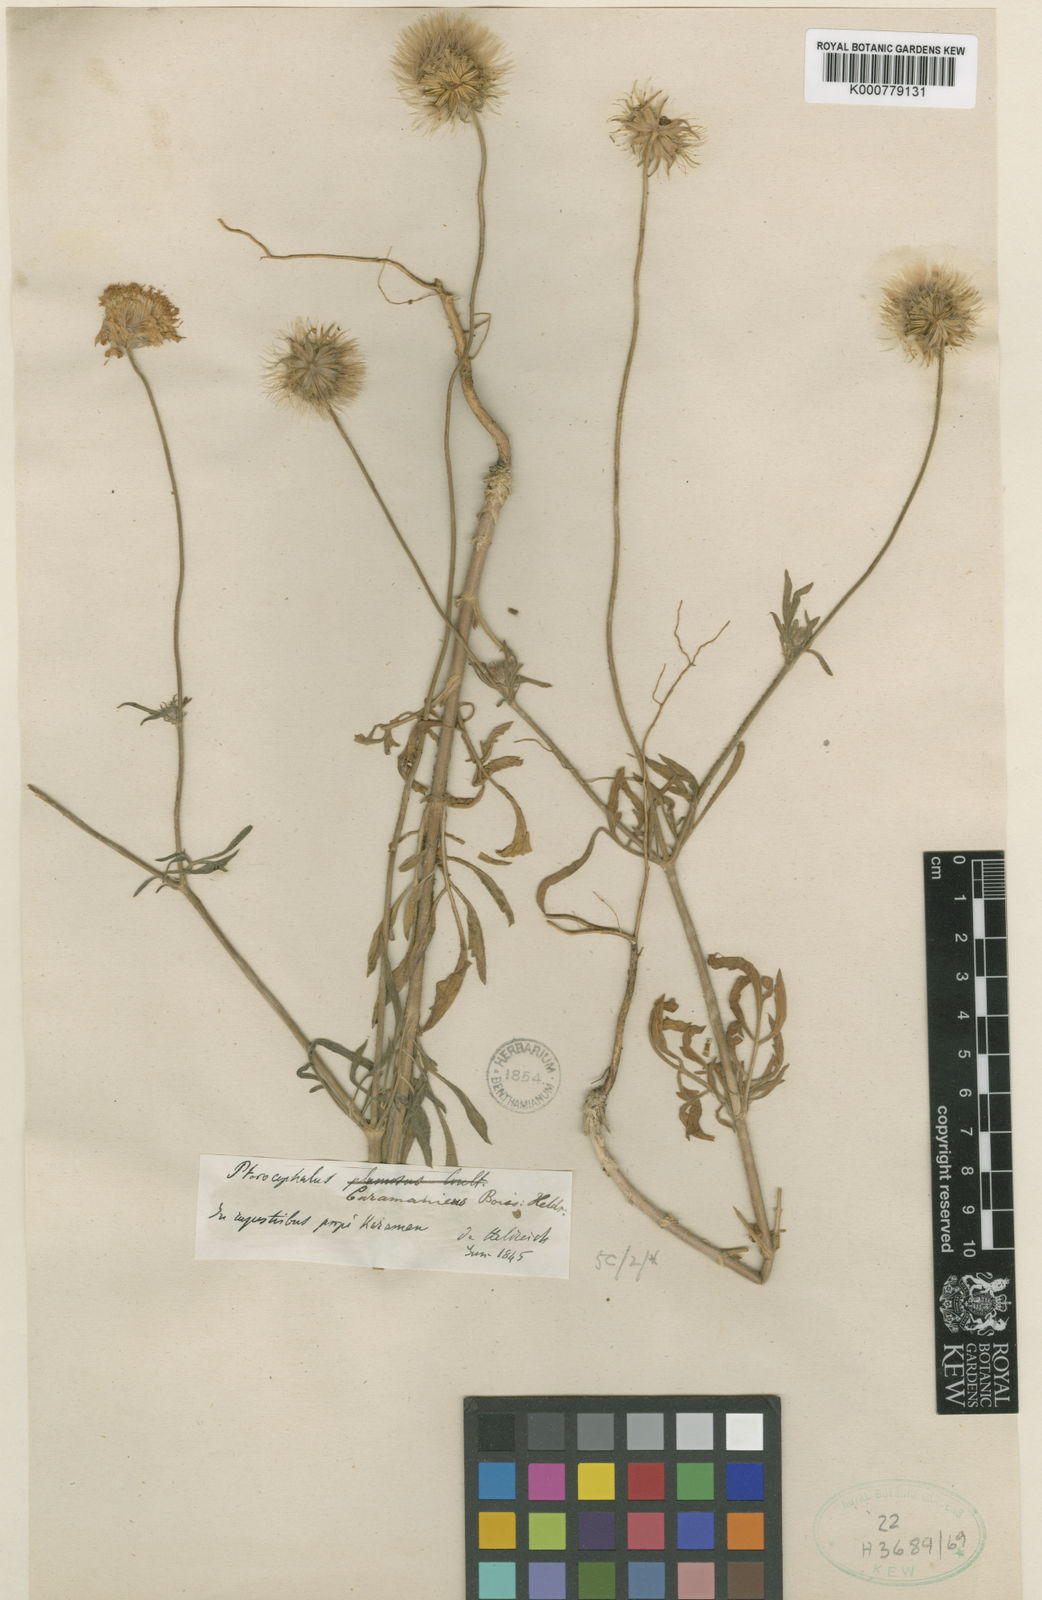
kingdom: Plantae
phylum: Tracheophyta
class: Magnoliopsida
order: Dipsacales
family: Caprifoliaceae
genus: Pterocephalus
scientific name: Pterocephalus plumosus
